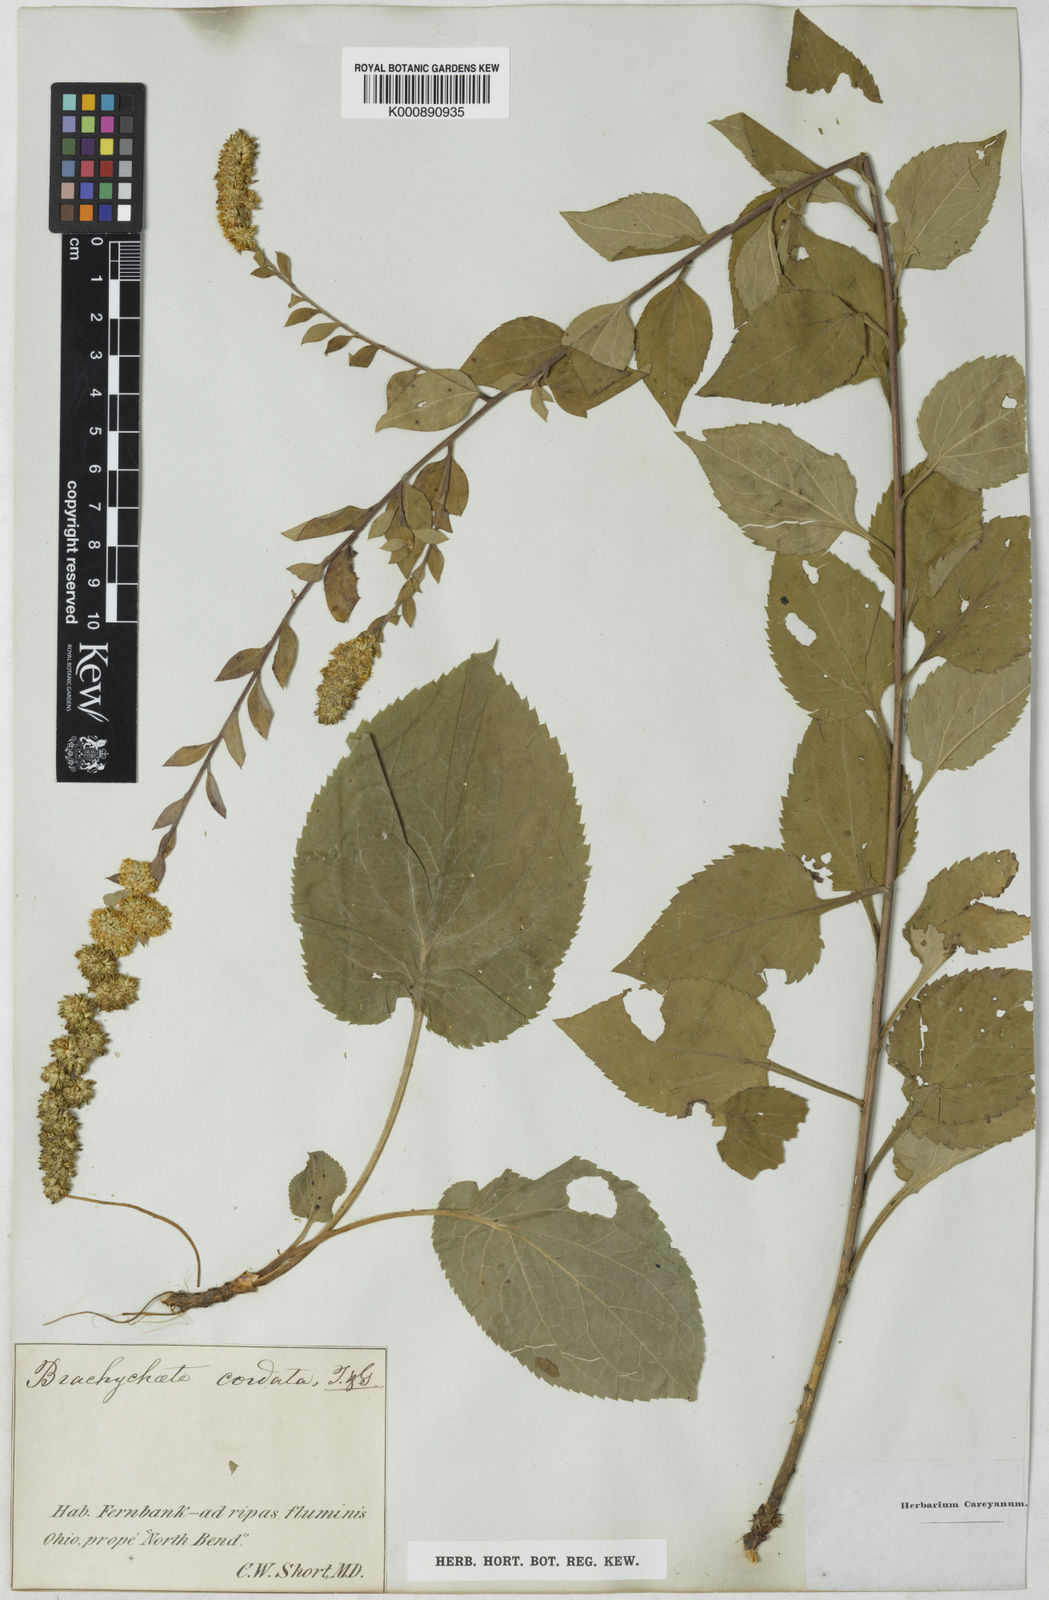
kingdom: Plantae
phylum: Tracheophyta
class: Magnoliopsida
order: Asterales
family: Asteraceae
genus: Solidago
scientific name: Solidago sphacelata
